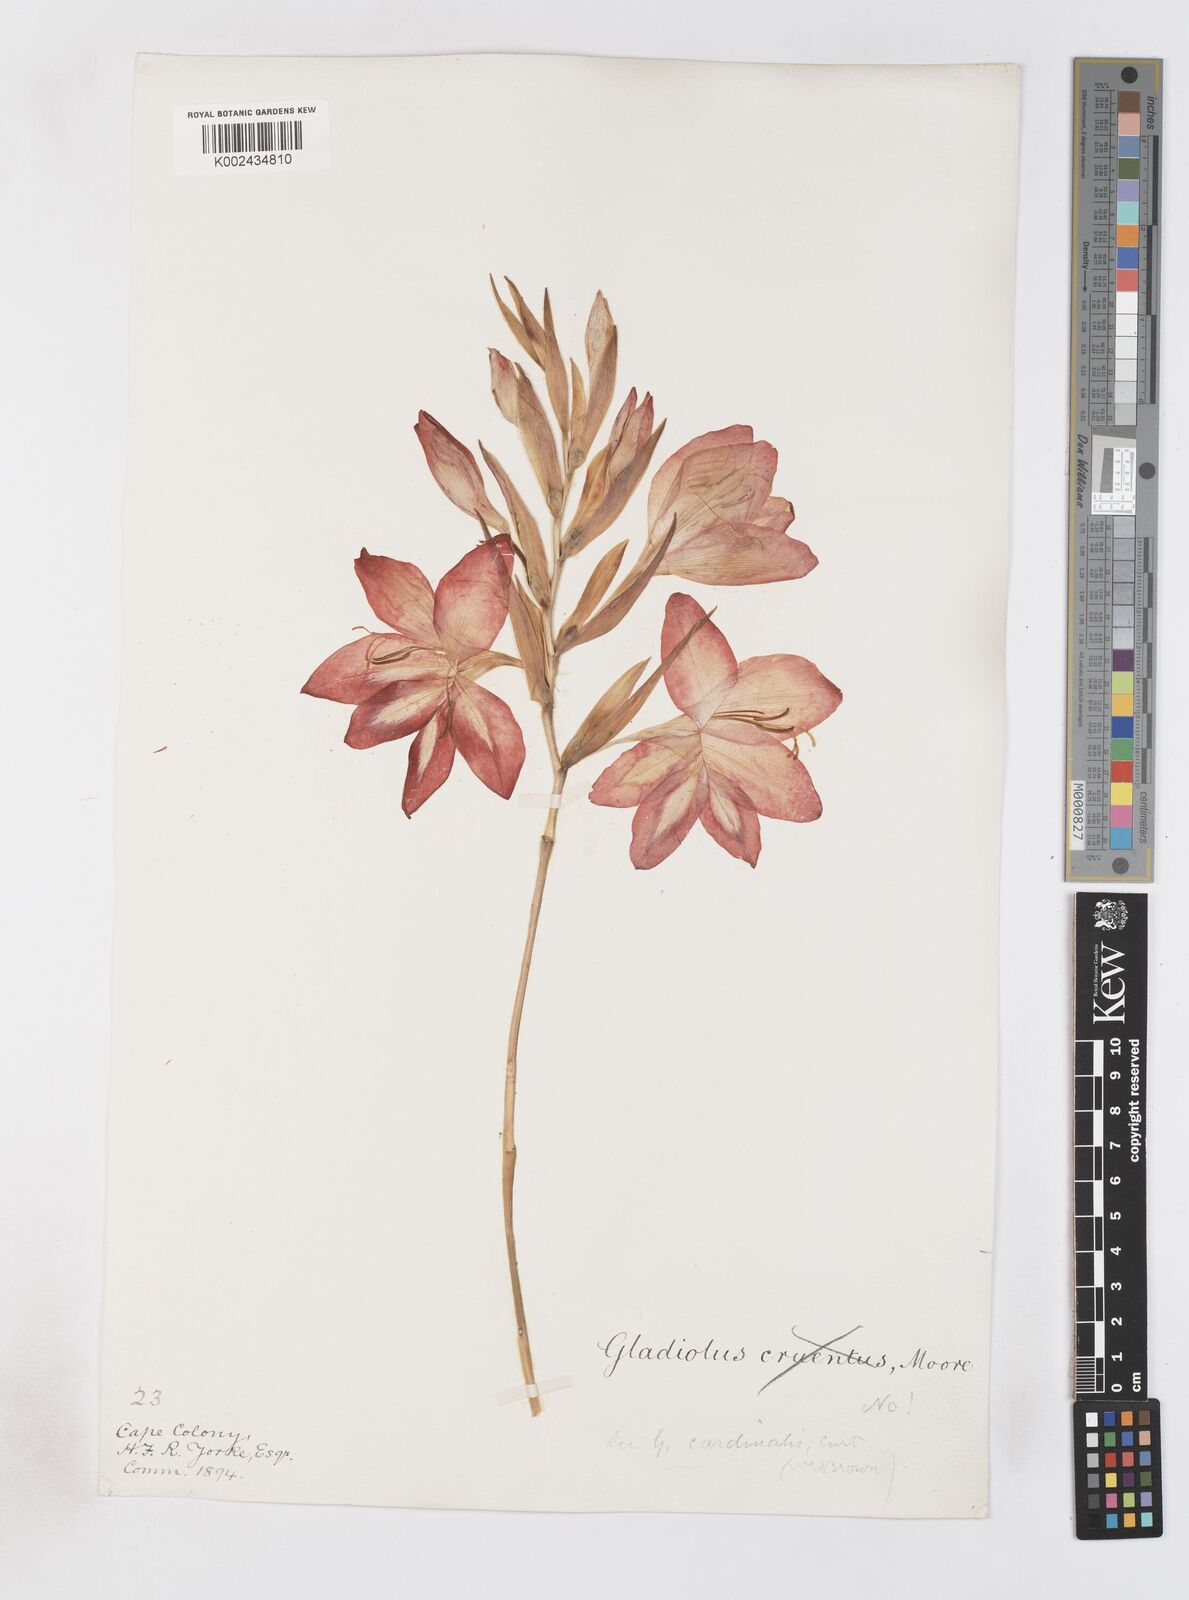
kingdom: Plantae
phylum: Tracheophyta
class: Liliopsida
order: Asparagales
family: Iridaceae
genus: Gladiolus
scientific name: Gladiolus cardinalis
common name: New year-lily
